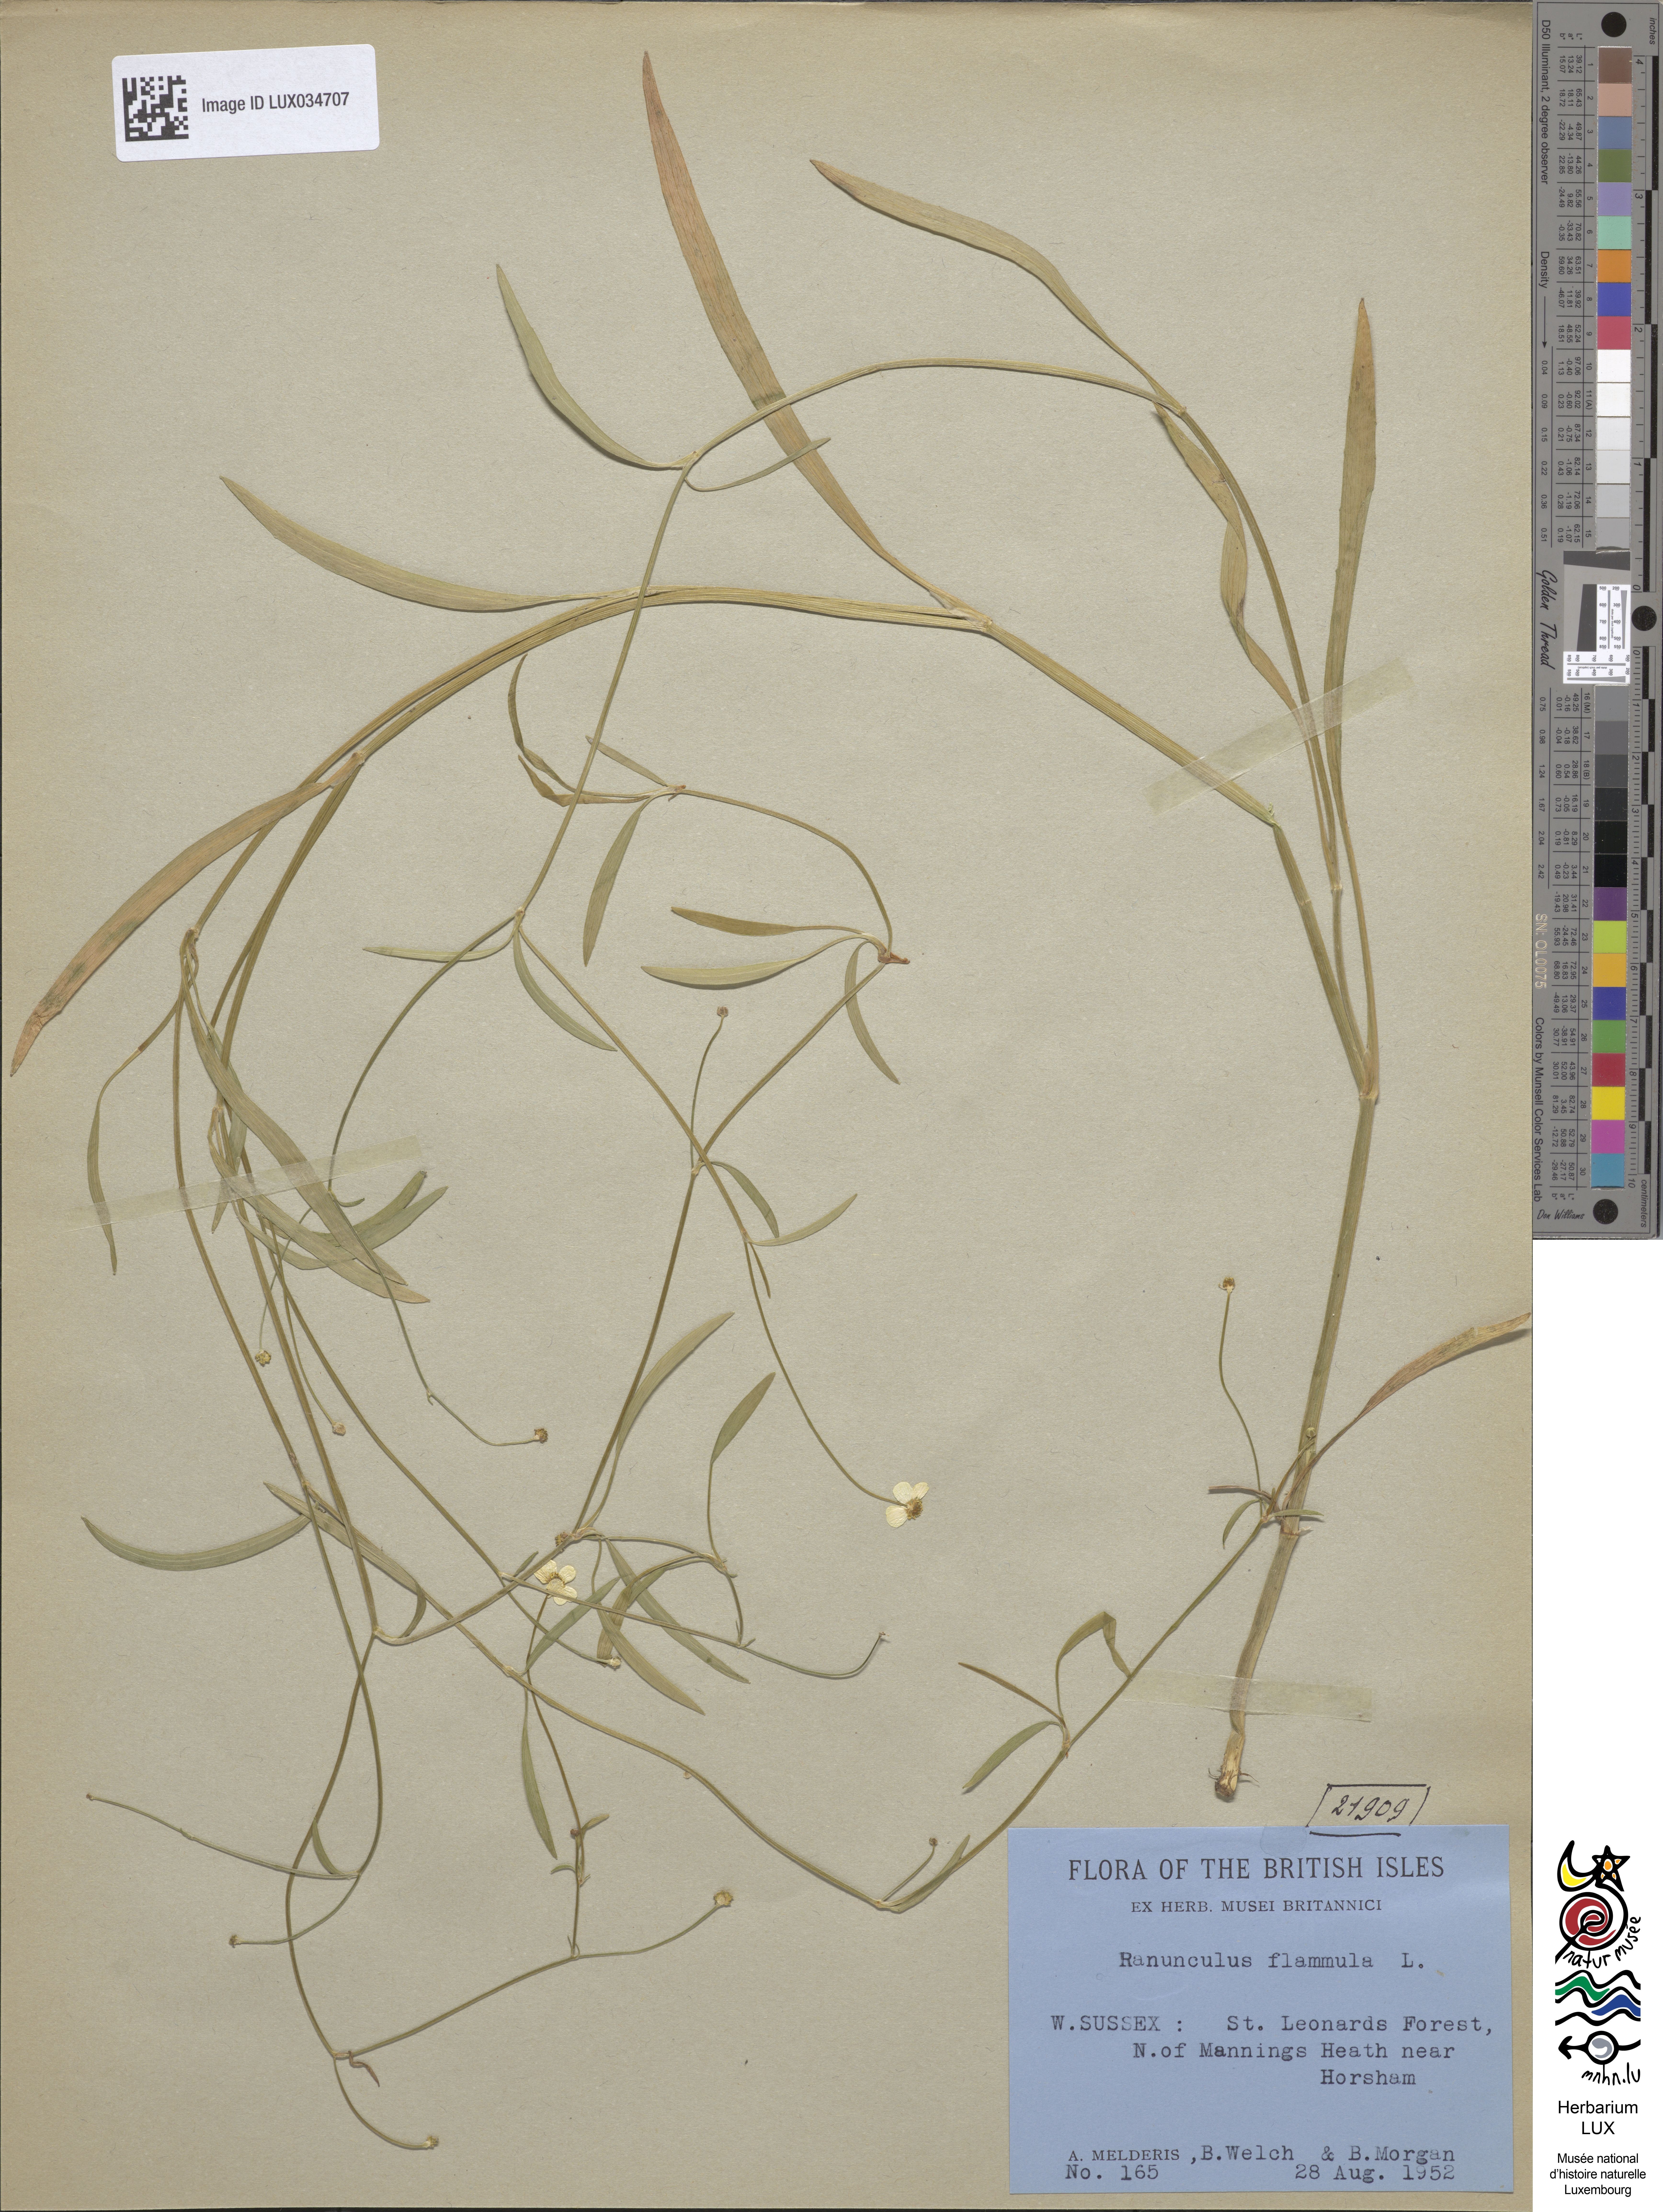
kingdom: Plantae
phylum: Tracheophyta
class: Magnoliopsida
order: Ranunculales
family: Ranunculaceae
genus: Ranunculus
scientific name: Ranunculus flammula
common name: Lesser spearwort
